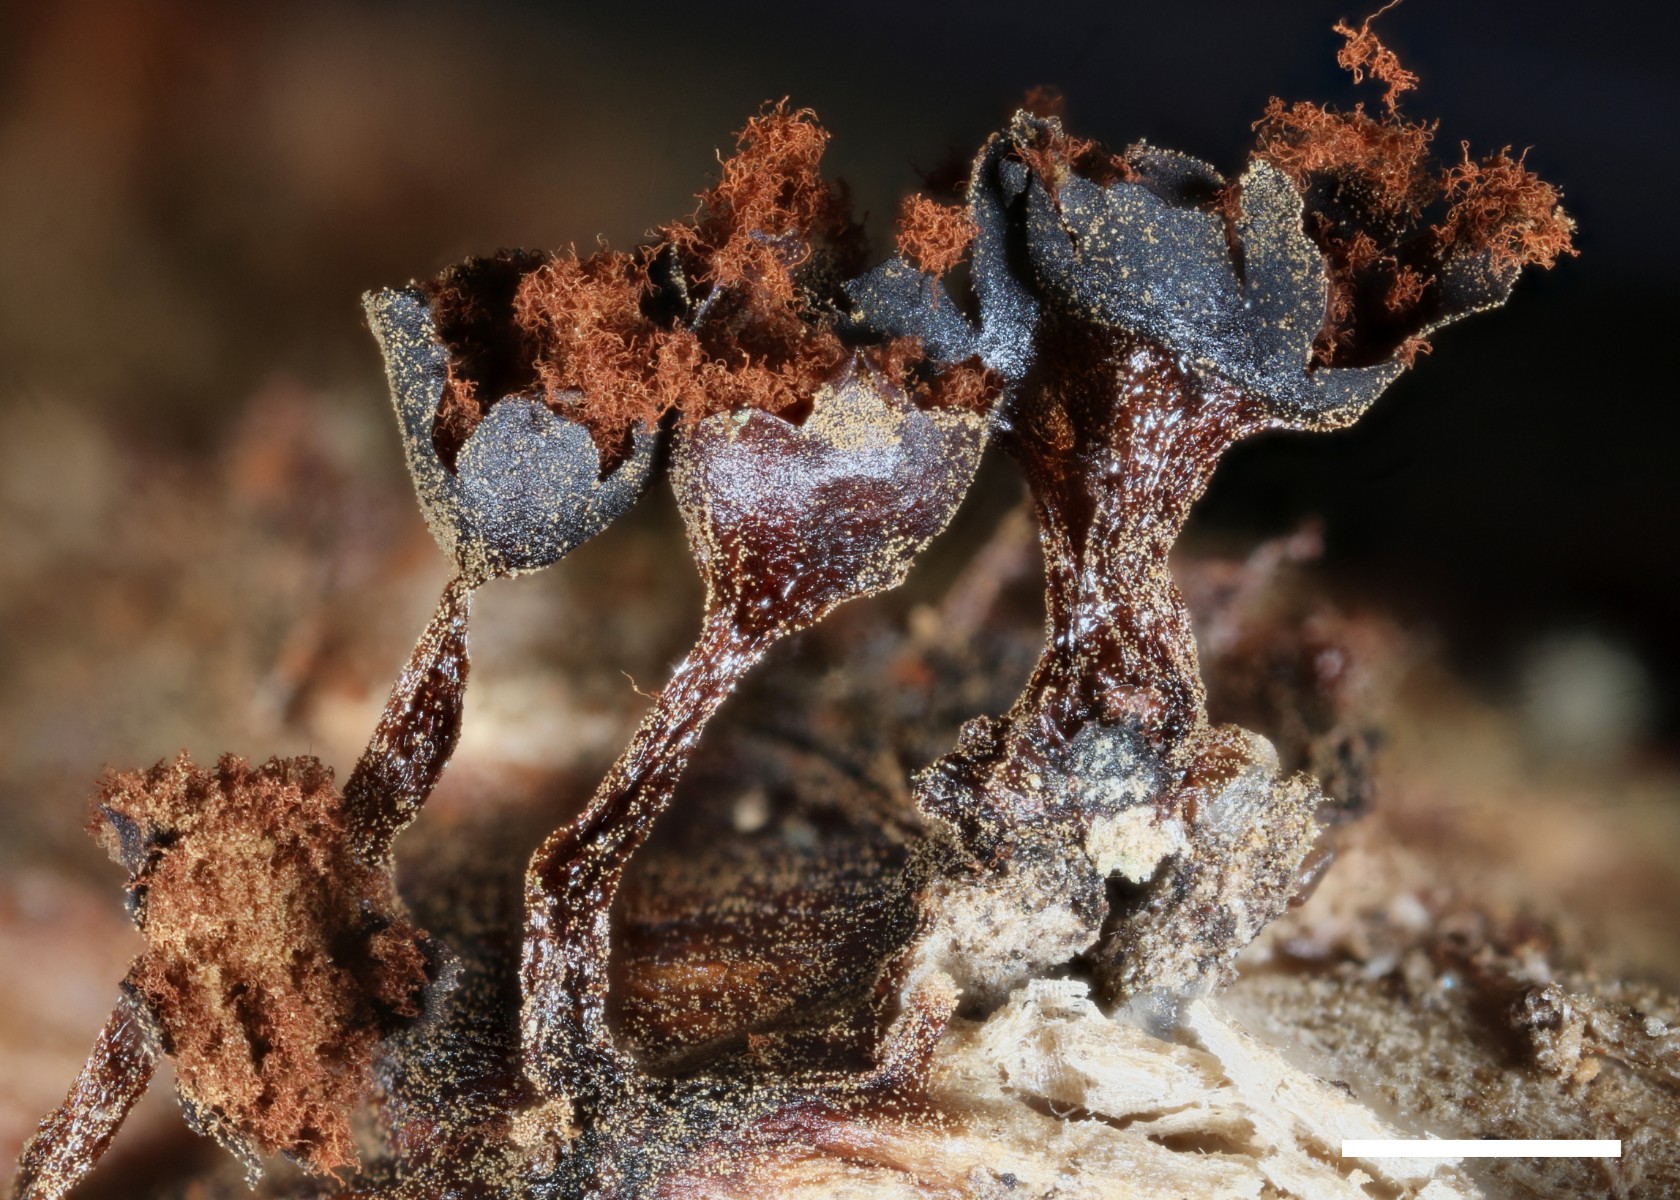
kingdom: Protozoa
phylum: Mycetozoa
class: Myxomycetes
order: Trichiales
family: Trichiaceae
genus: Metatrichia
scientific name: Metatrichia floriformis
